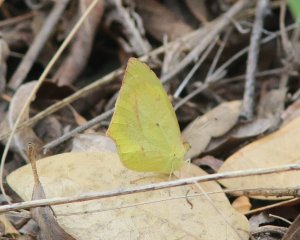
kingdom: Animalia
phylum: Arthropoda
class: Insecta
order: Lepidoptera
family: Pieridae
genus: Eurema
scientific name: Eurema mexicana
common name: Mexican Yellow
